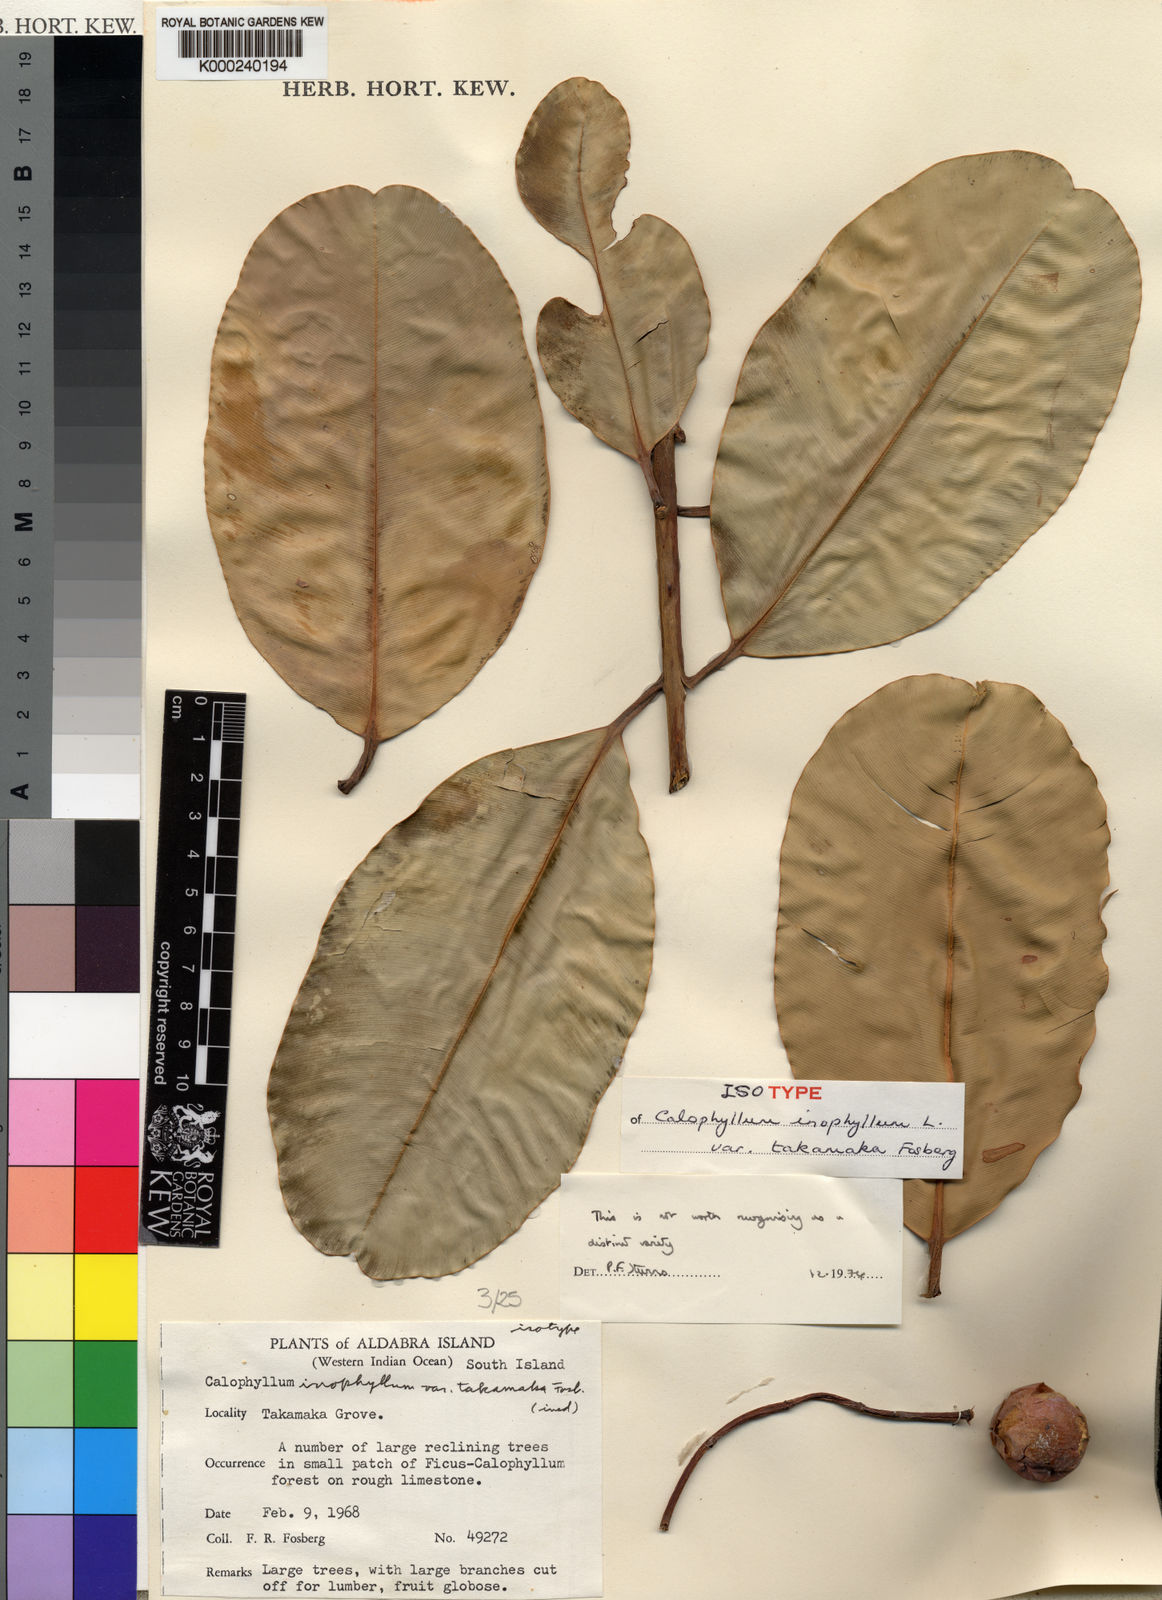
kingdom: Plantae
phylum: Tracheophyta
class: Magnoliopsida
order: Malpighiales
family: Calophyllaceae
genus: Calophyllum
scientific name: Calophyllum inophyllum
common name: Alexandrian laurel
